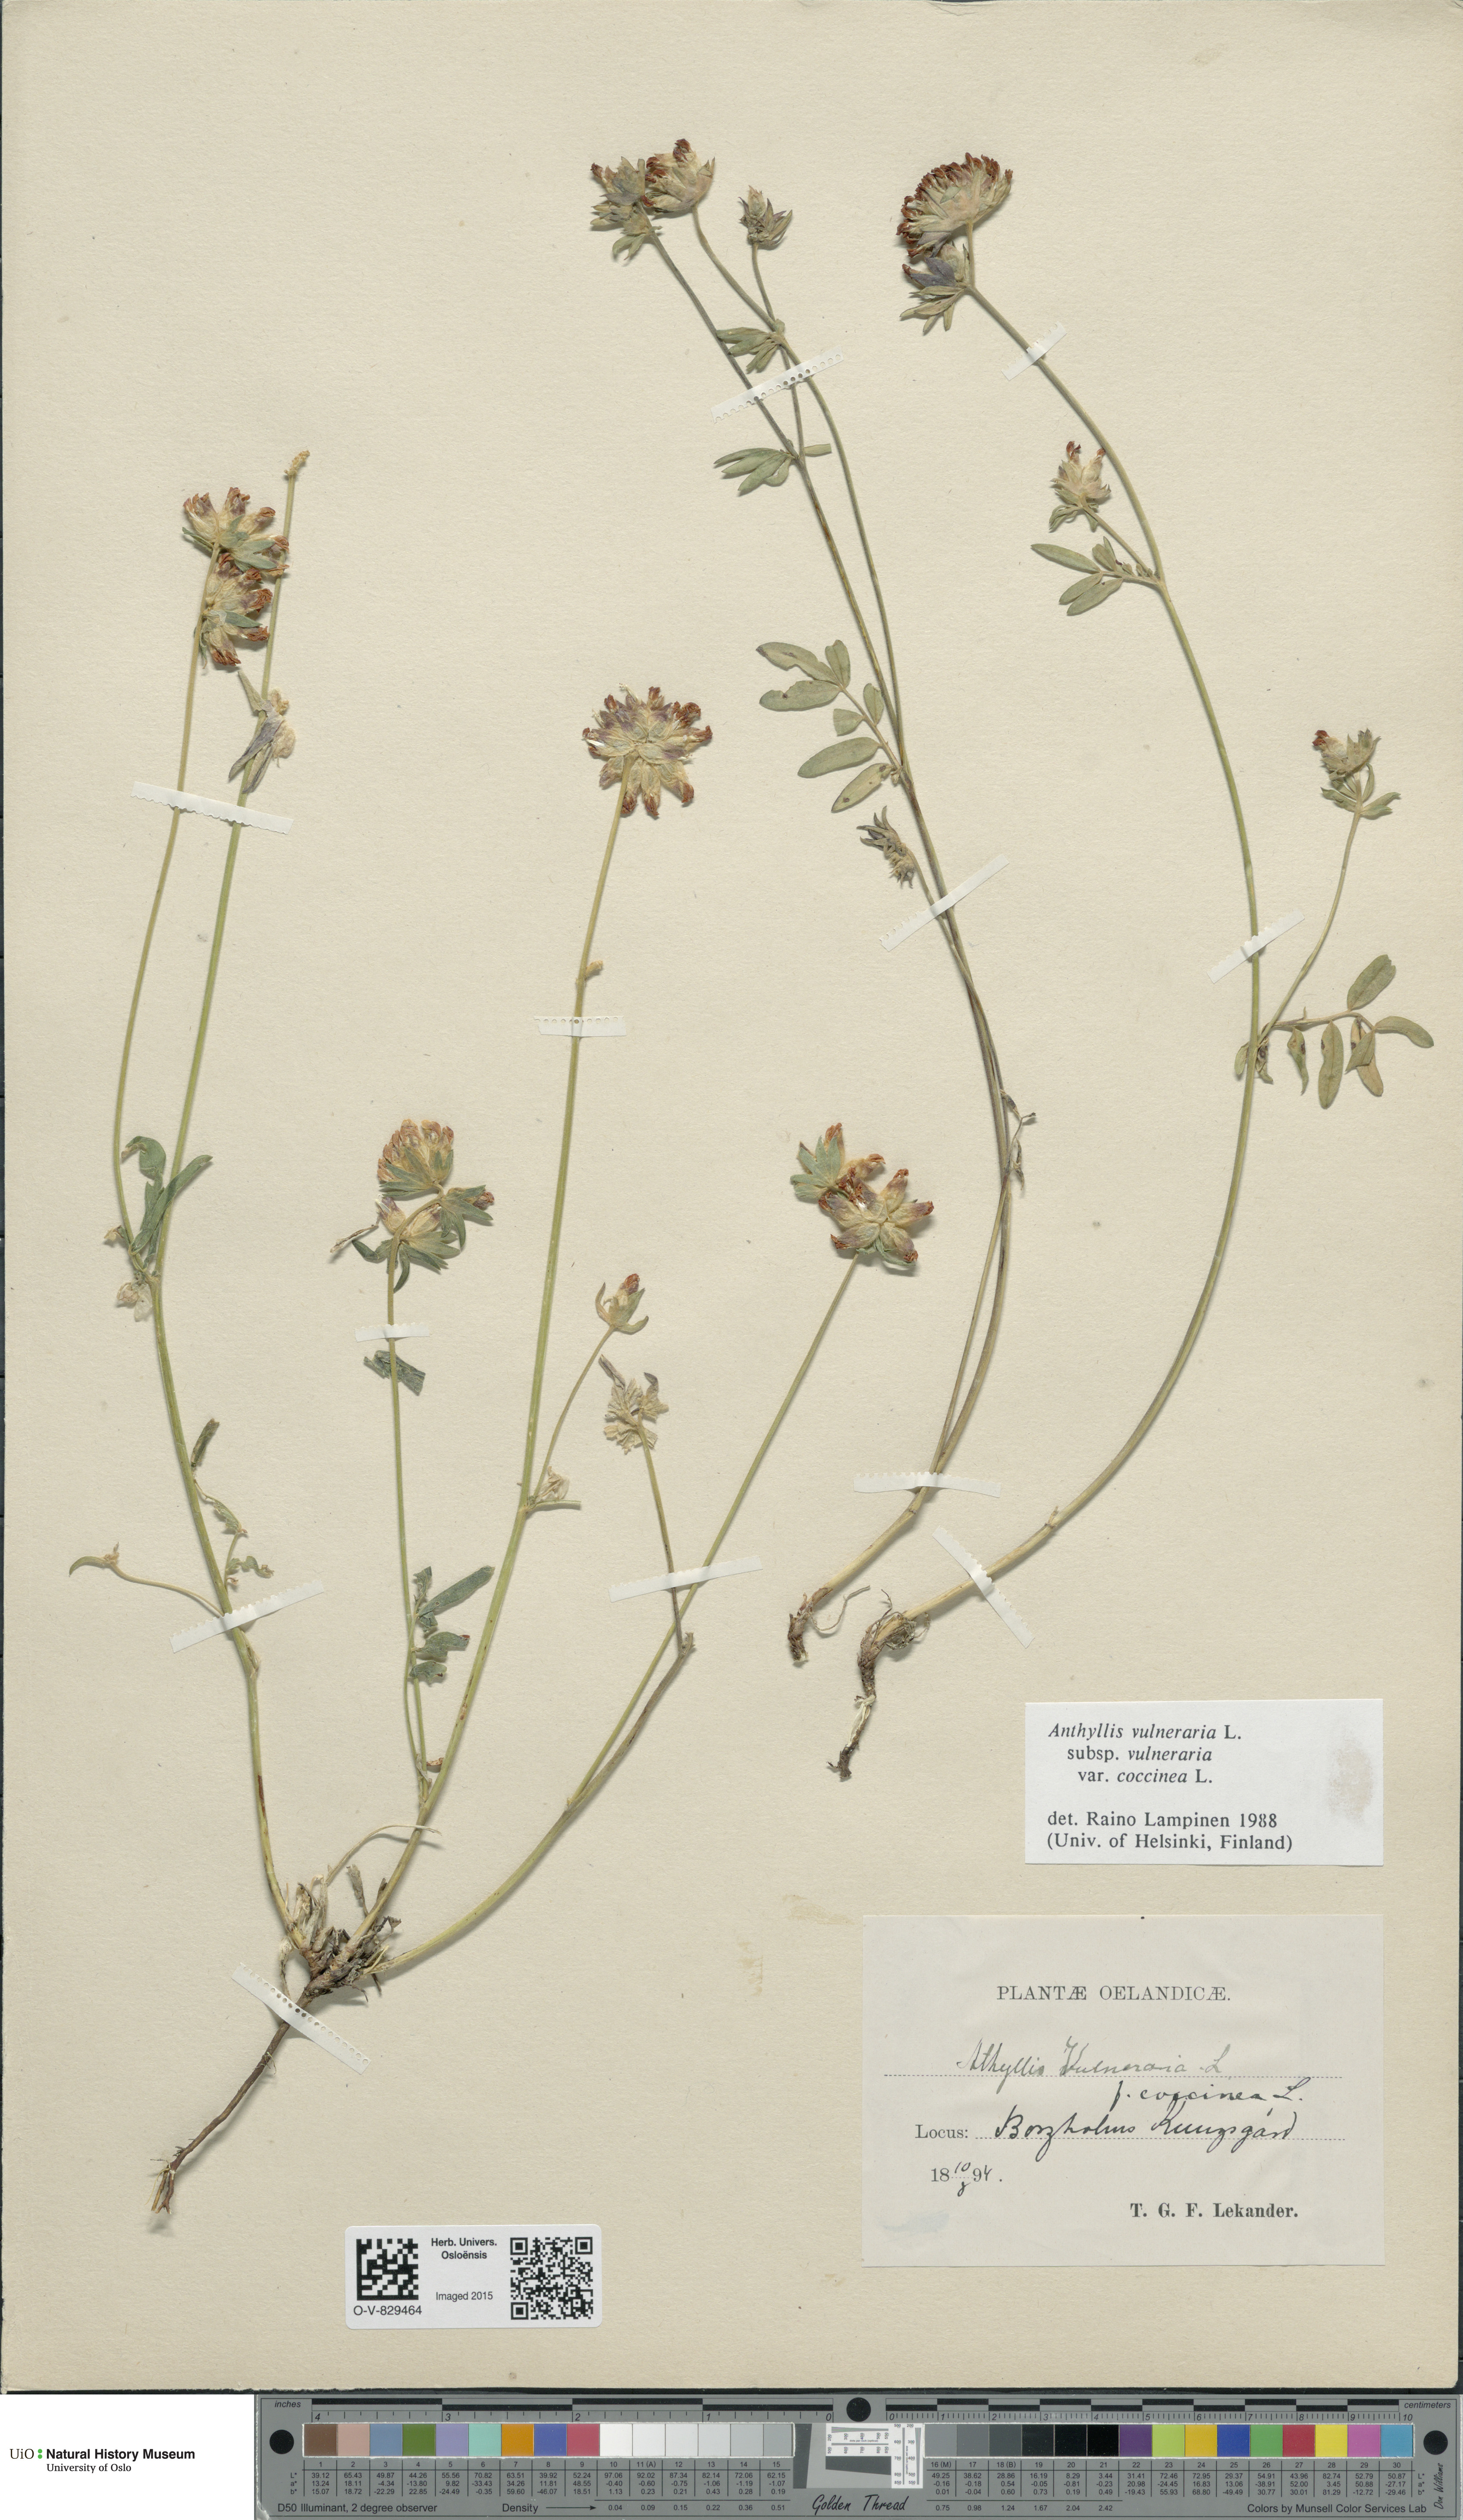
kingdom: Plantae
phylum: Tracheophyta
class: Magnoliopsida
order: Fabales
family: Fabaceae
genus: Anthyllis
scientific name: Anthyllis vulneraria
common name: Kidney vetch
